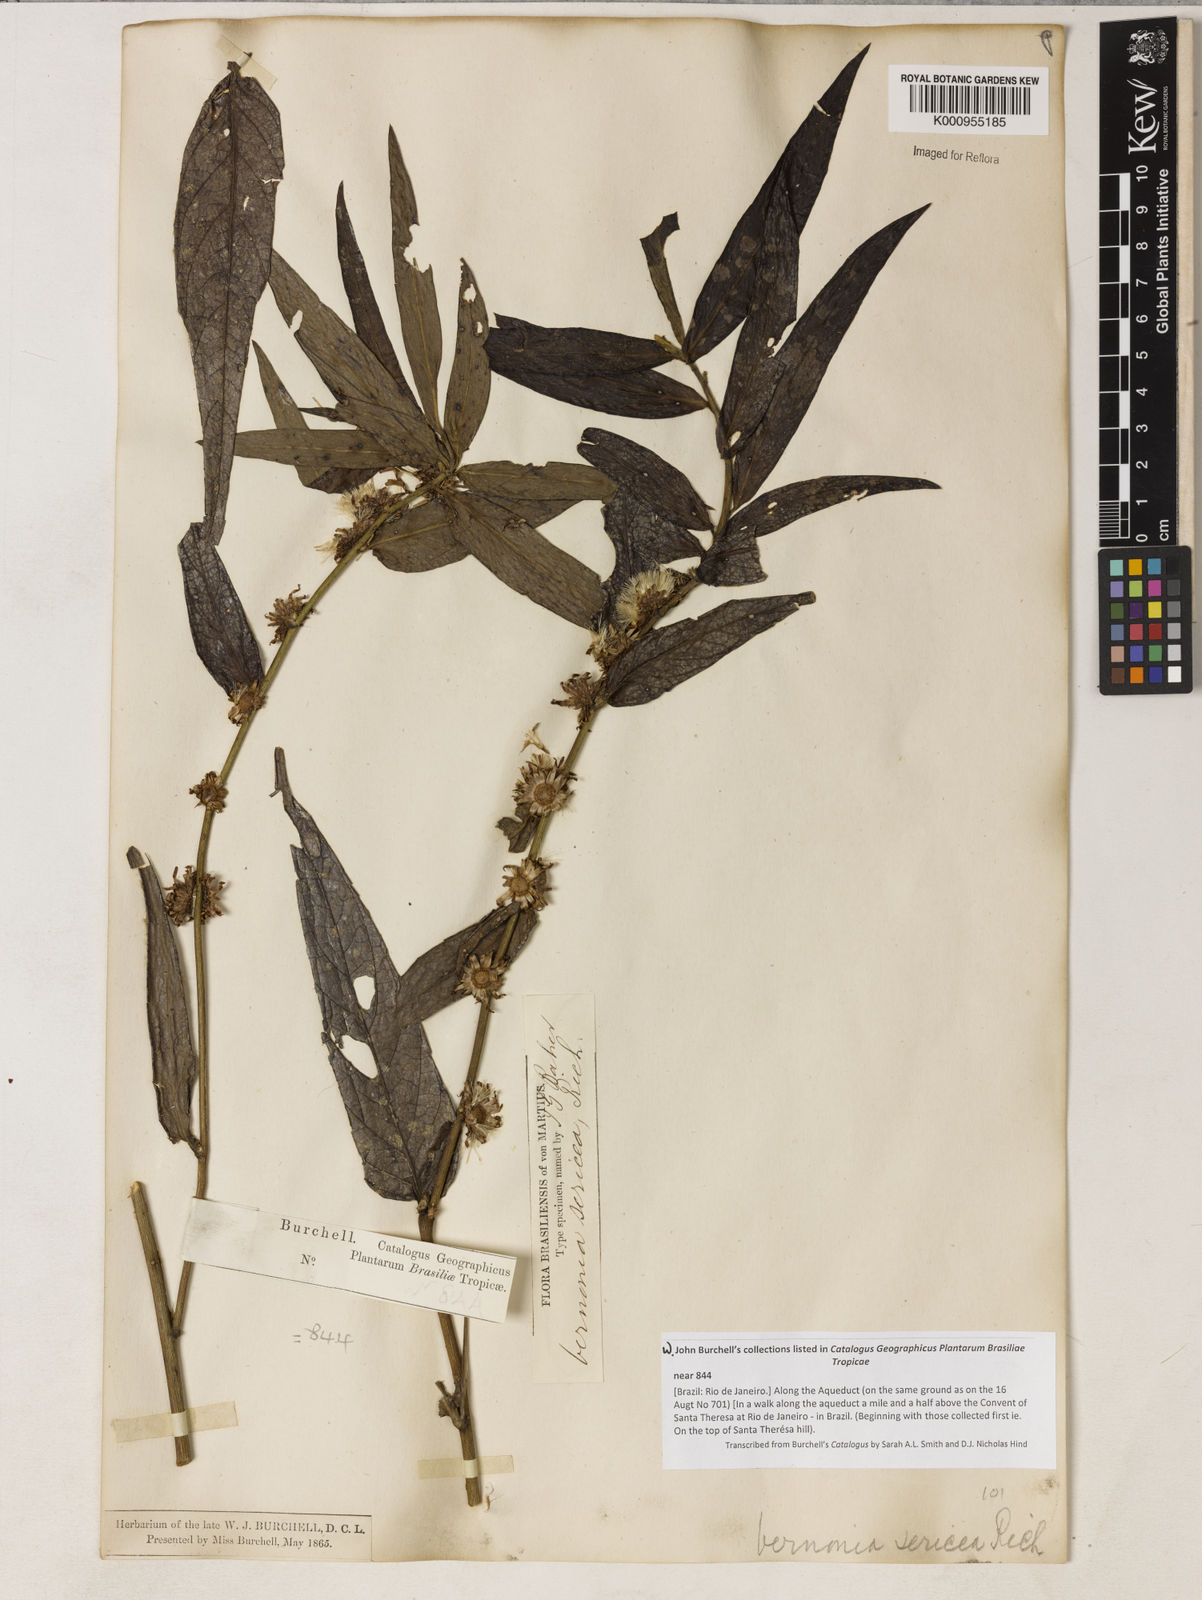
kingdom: Plantae
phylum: Tracheophyta
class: Magnoliopsida
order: Asterales
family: Asteraceae
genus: Lepidaploa
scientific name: Lepidaploa sericea
